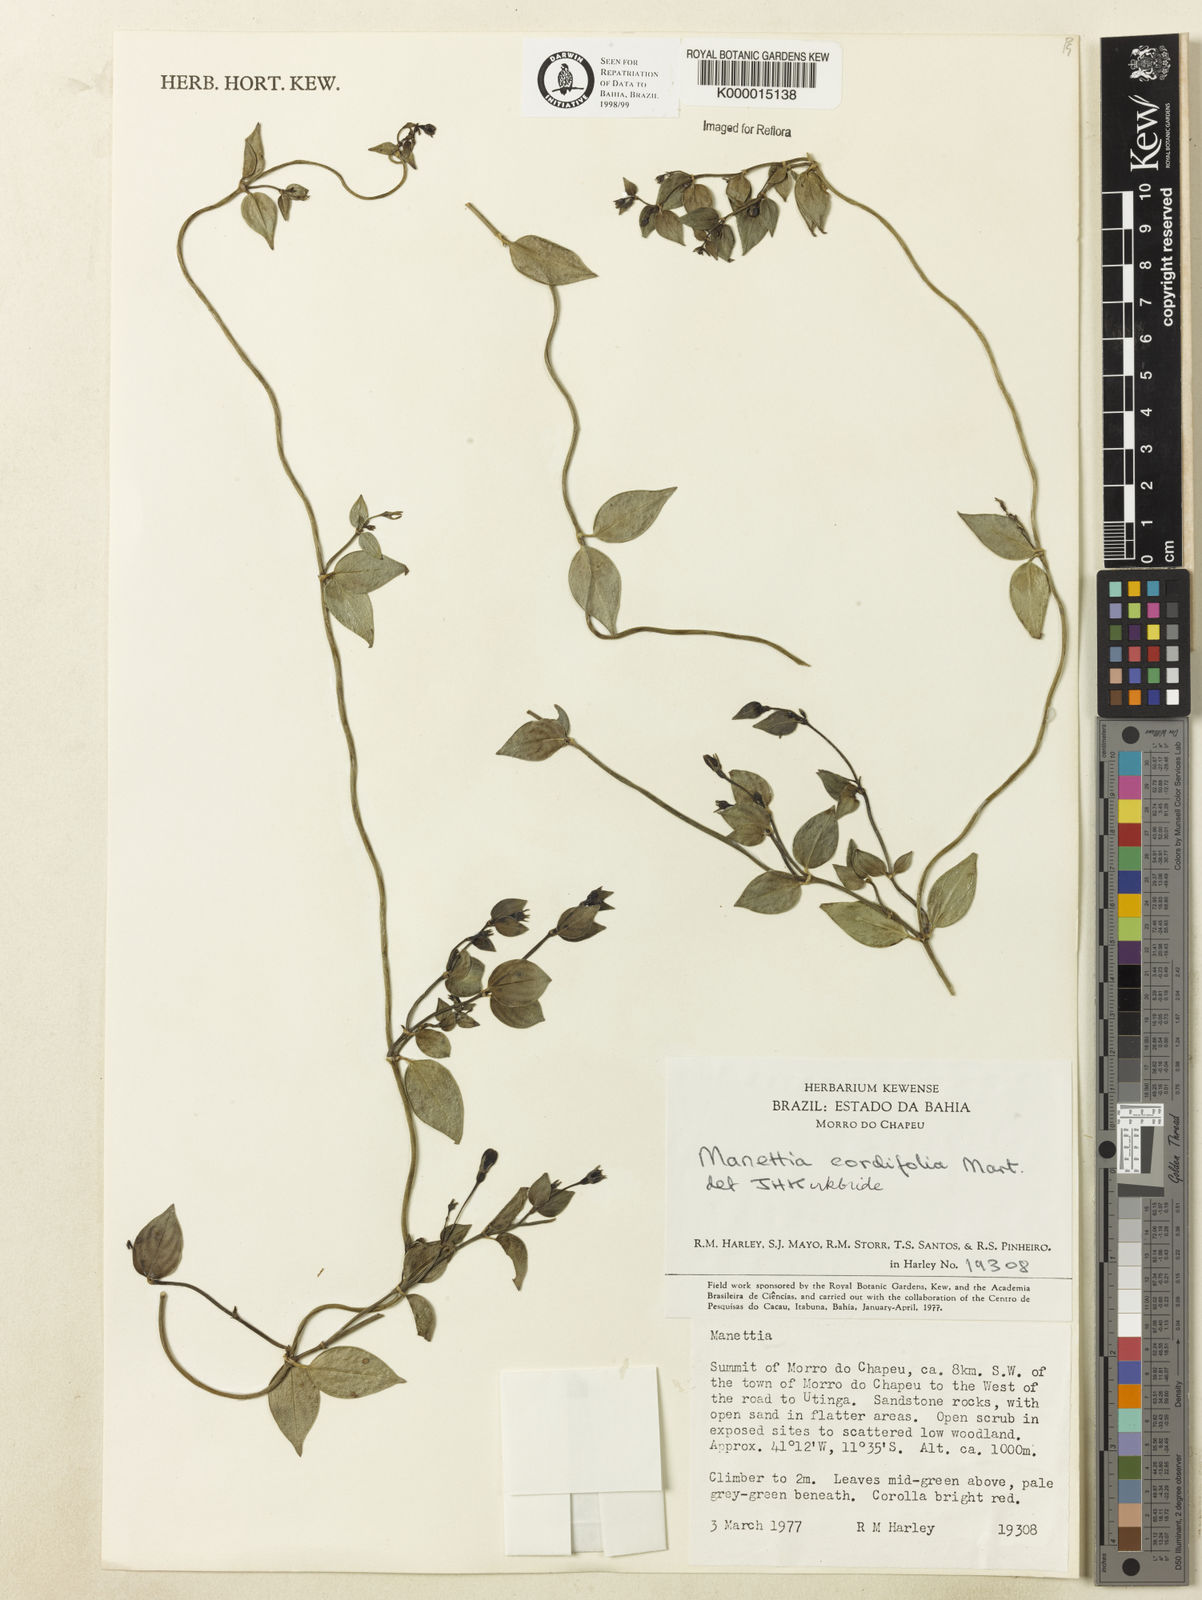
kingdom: Plantae
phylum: Tracheophyta
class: Magnoliopsida
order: Gentianales
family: Rubiaceae
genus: Manettia
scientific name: Manettia cordifolia
